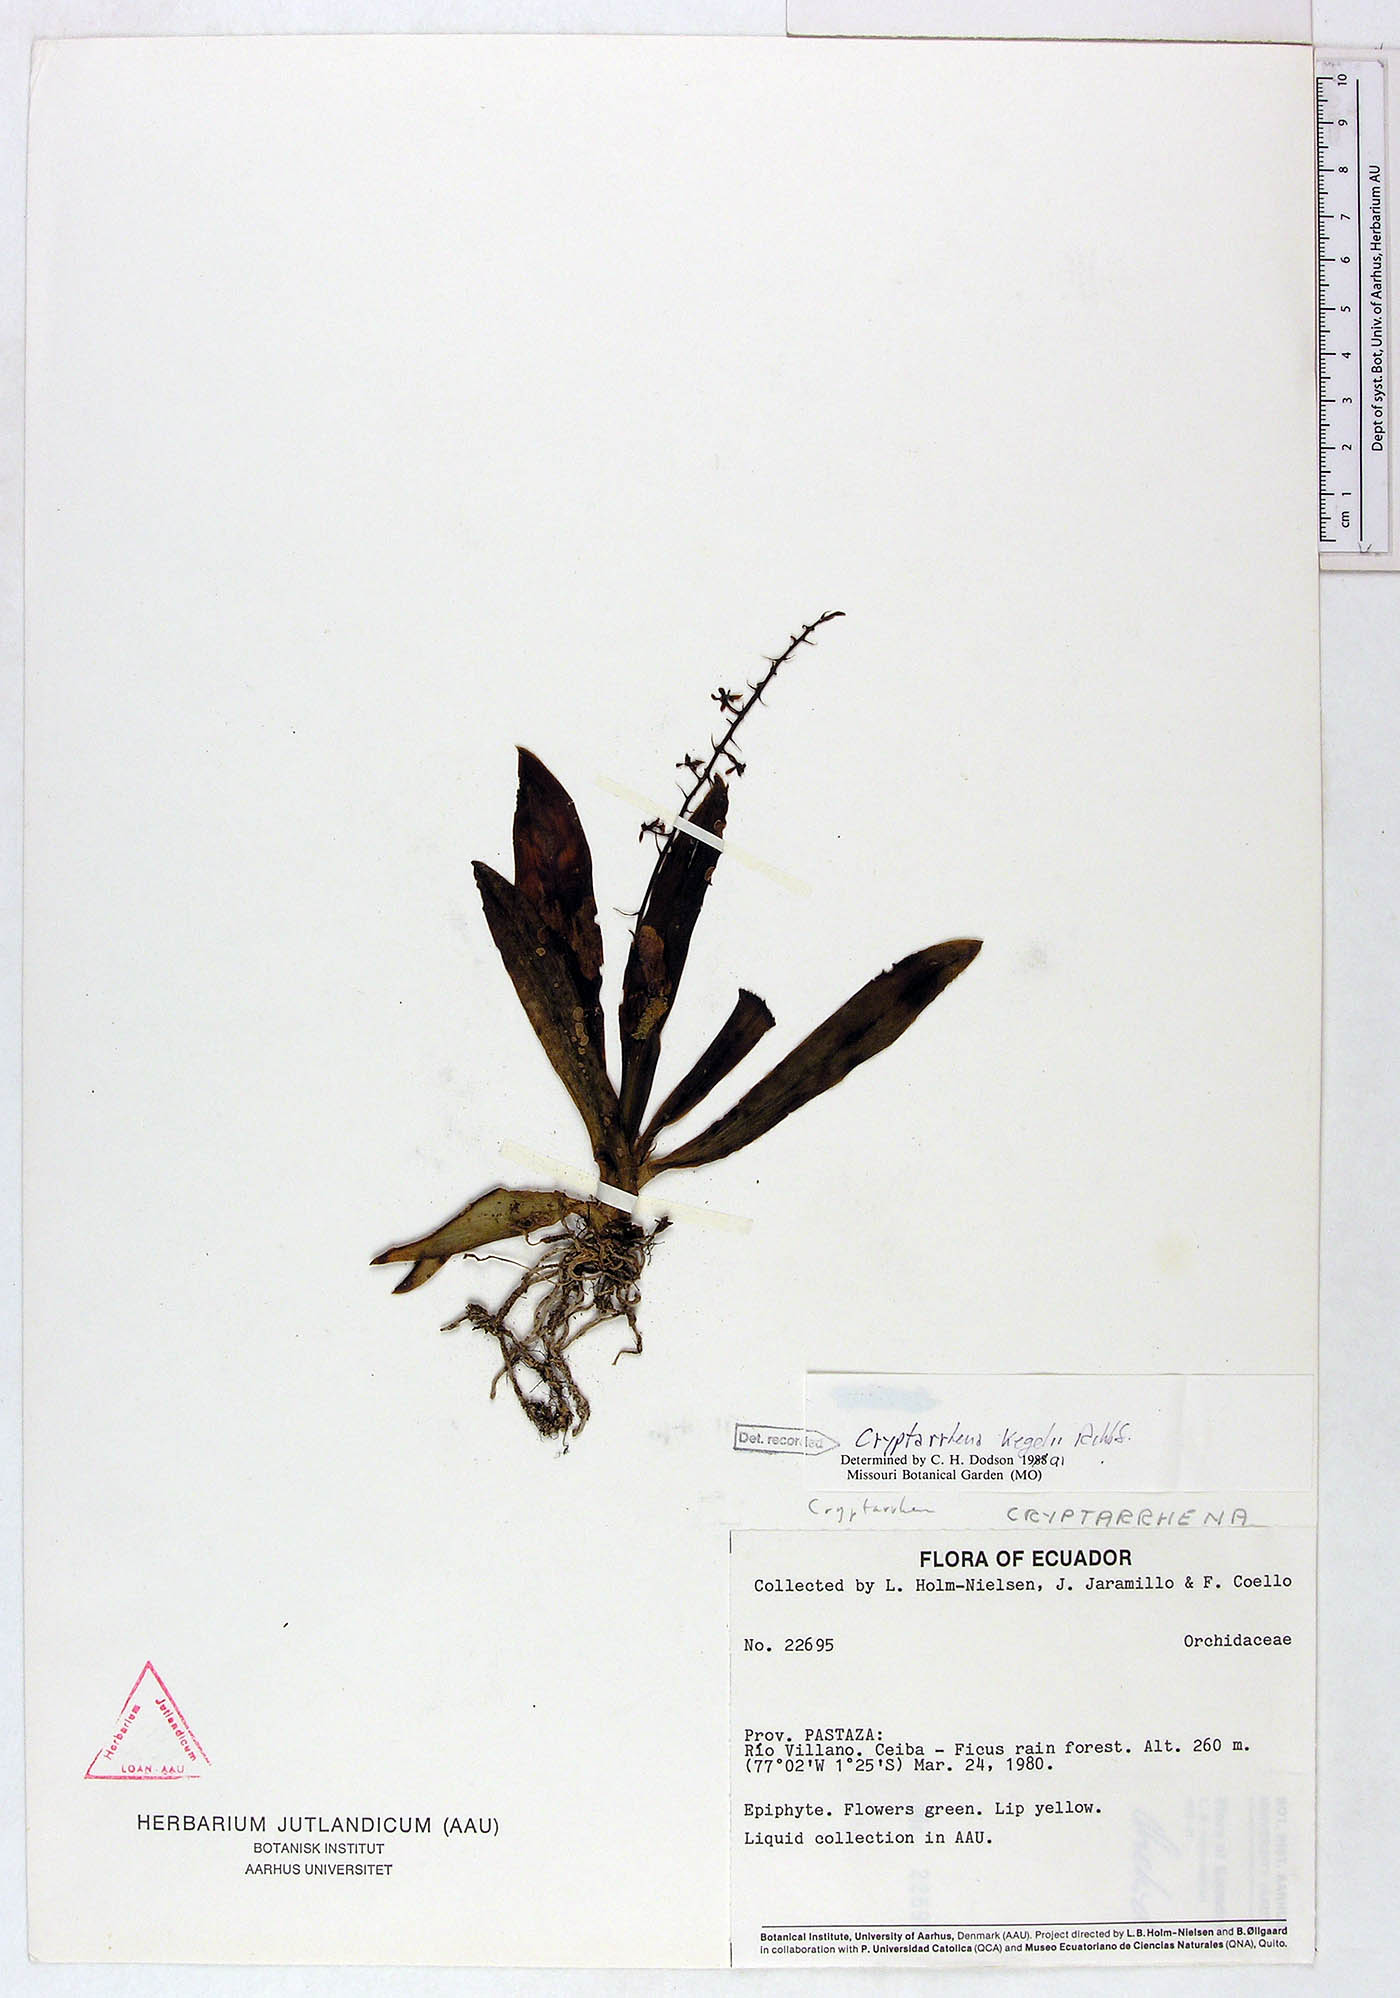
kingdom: Plantae
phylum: Tracheophyta
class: Liliopsida
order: Asparagales
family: Orchidaceae
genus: Cryptarrhena
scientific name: Cryptarrhena kegelii
